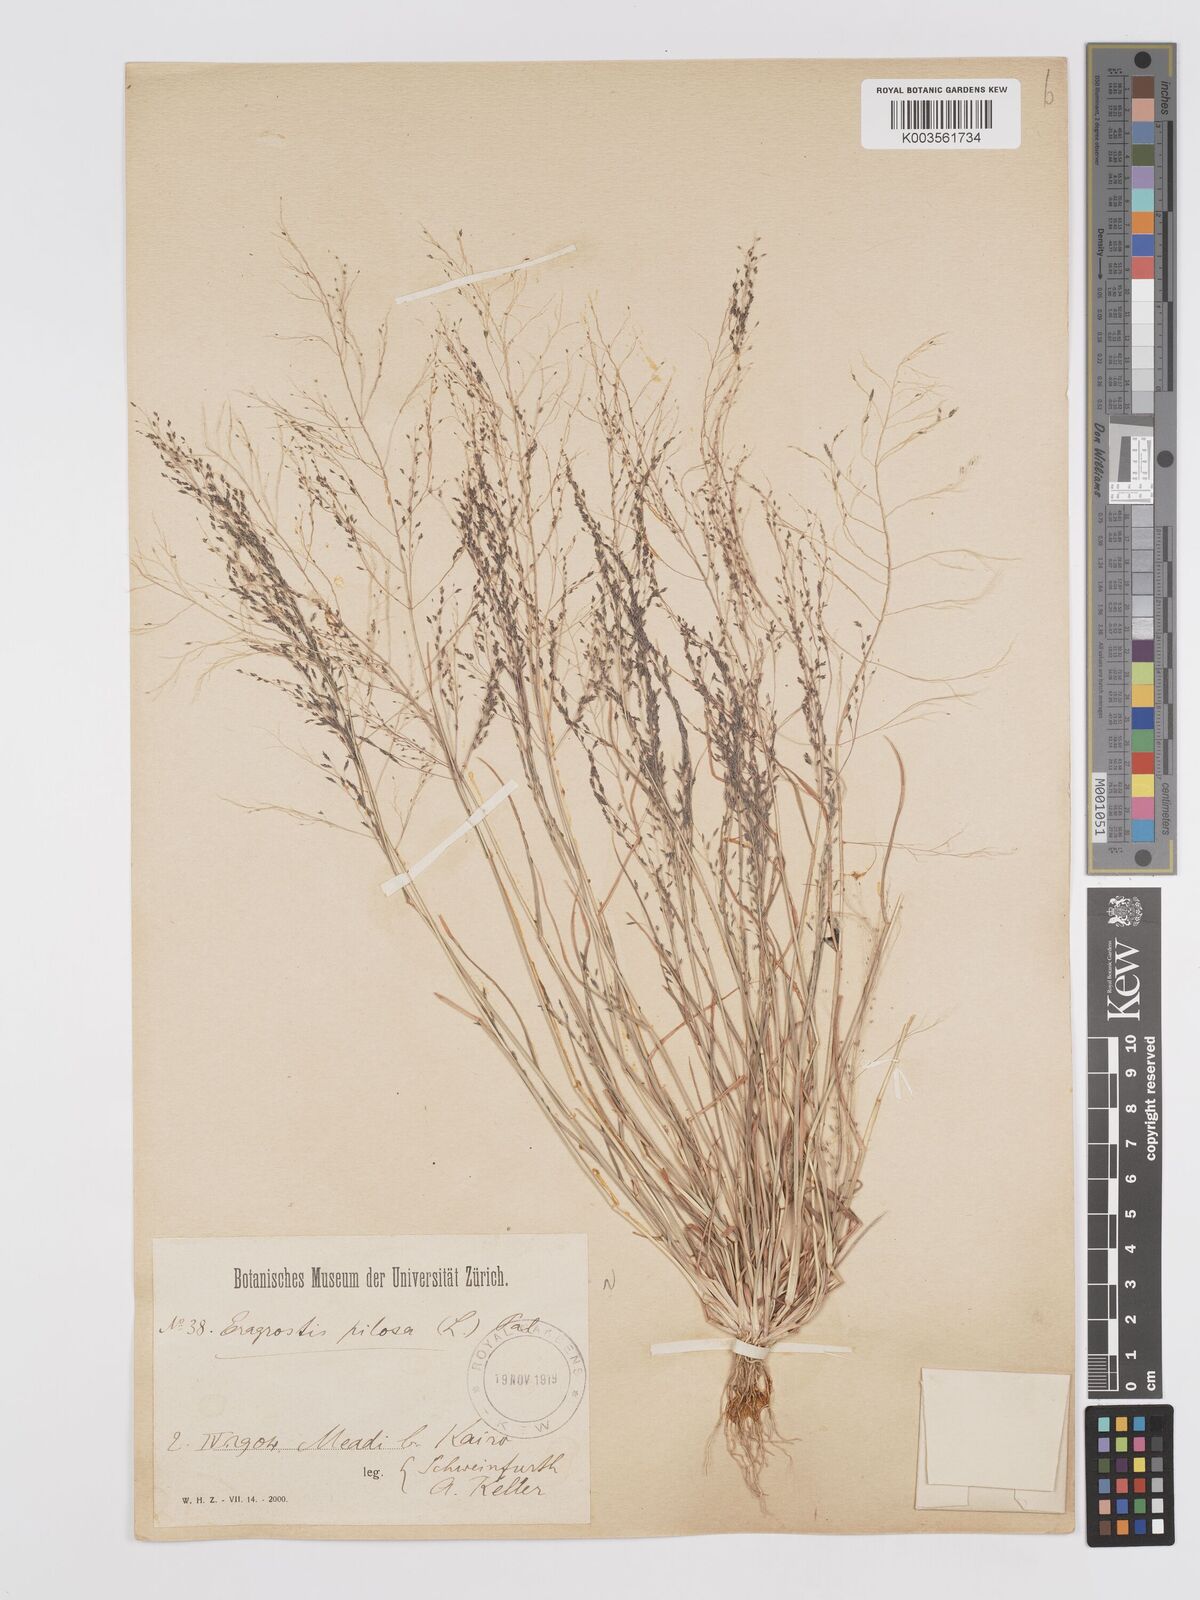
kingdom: Plantae
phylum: Tracheophyta
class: Liliopsida
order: Poales
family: Poaceae
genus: Eragrostis
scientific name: Eragrostis pilosa
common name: Indian lovegrass
